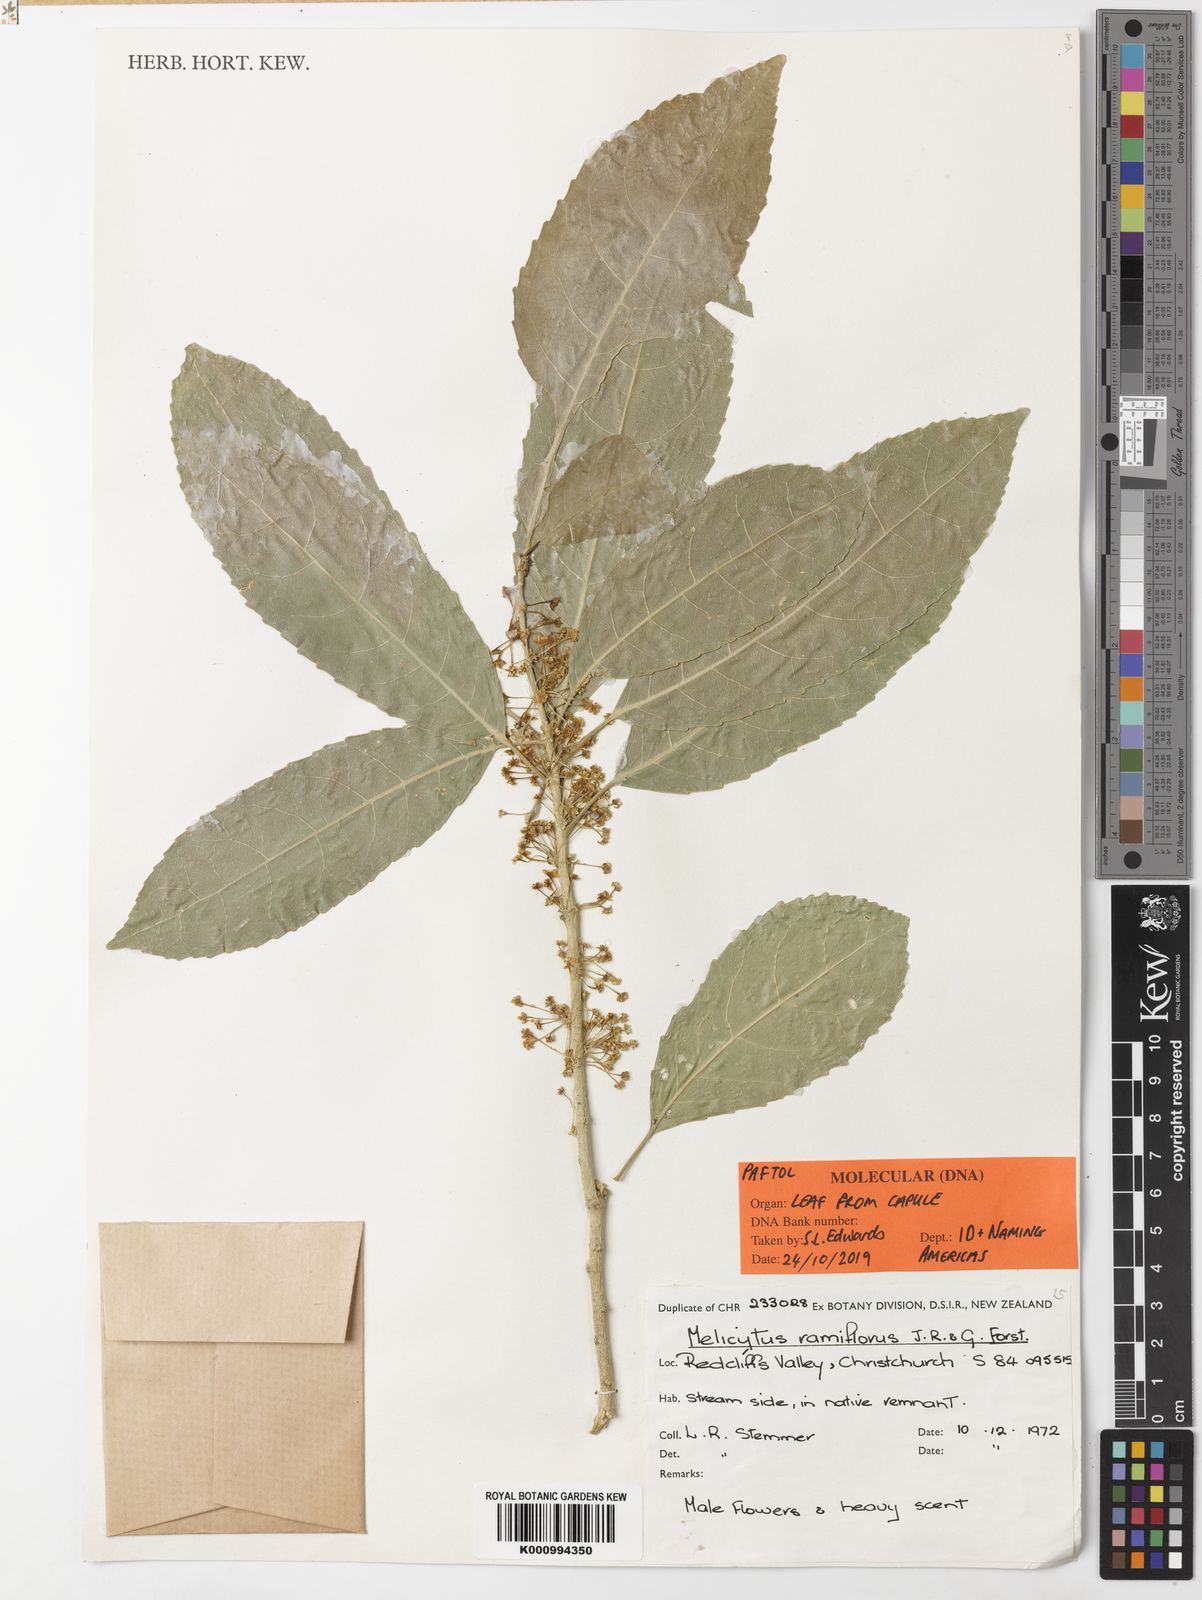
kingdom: Plantae
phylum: Tracheophyta
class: Magnoliopsida
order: Malpighiales
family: Violaceae
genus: Melicytus
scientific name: Melicytus ramiflorus
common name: Mahoe
